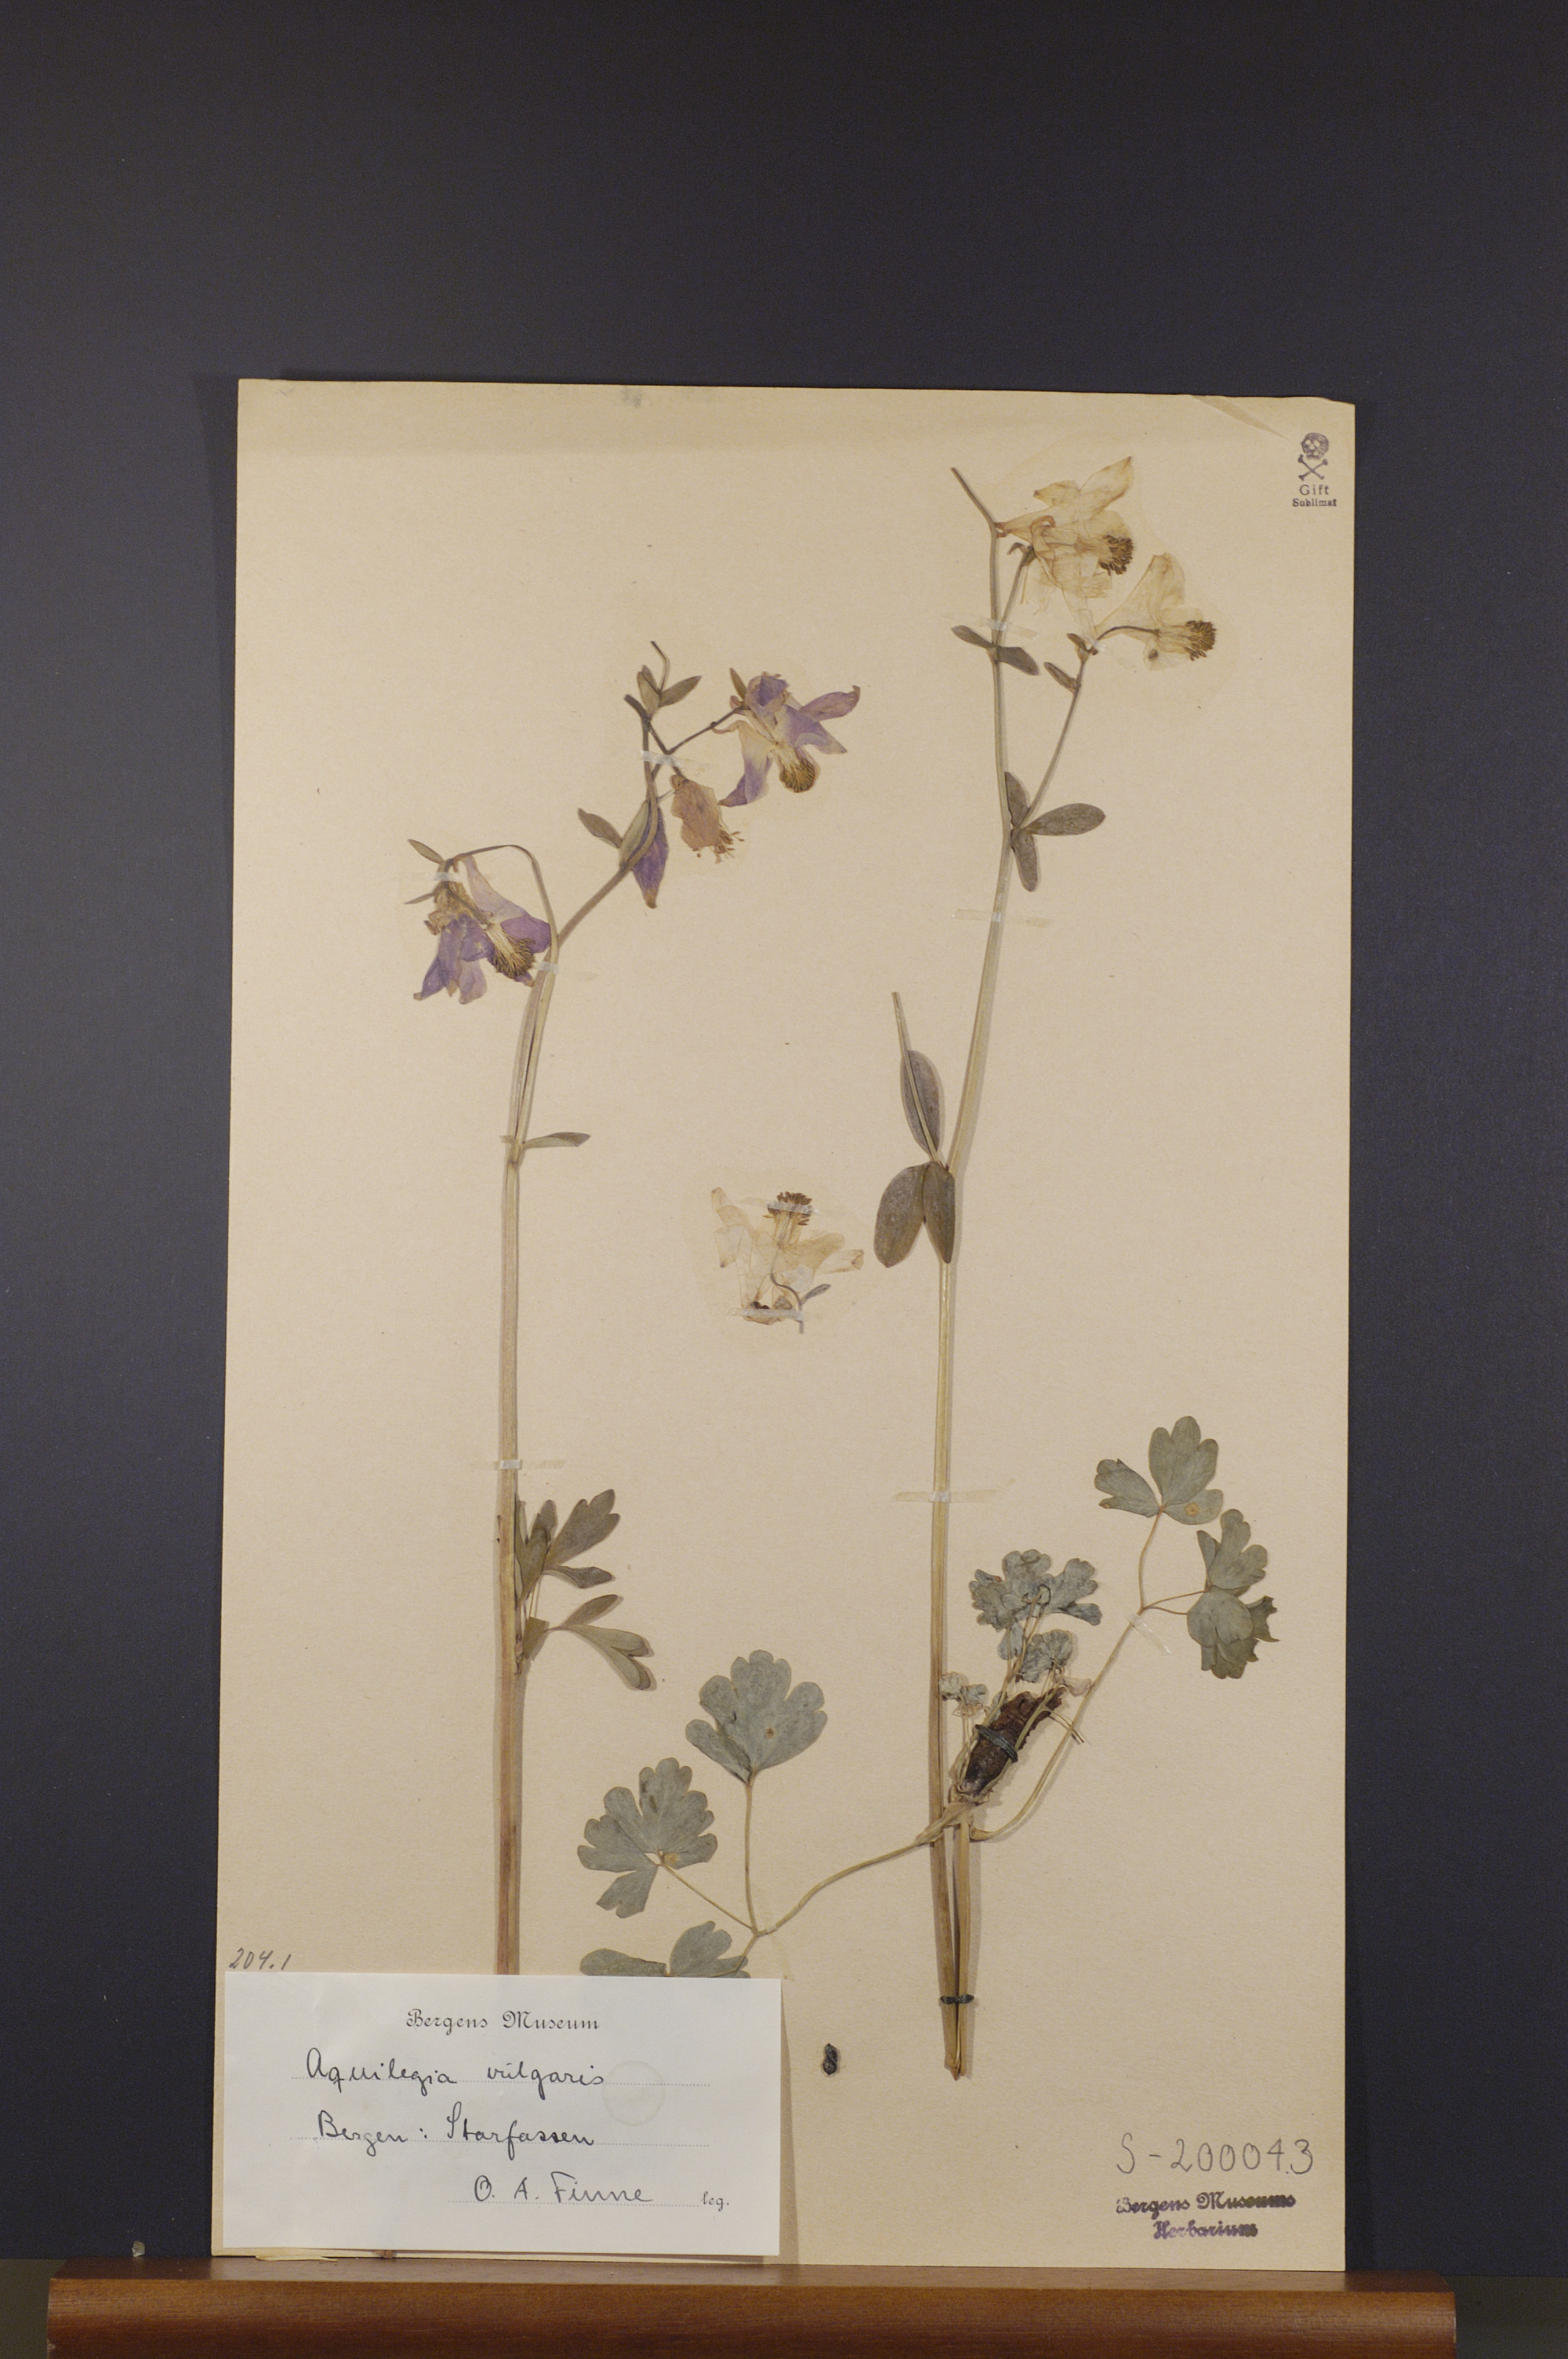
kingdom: Plantae
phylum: Tracheophyta
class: Magnoliopsida
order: Ranunculales
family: Ranunculaceae
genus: Aquilegia
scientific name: Aquilegia vulgaris
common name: Columbine
